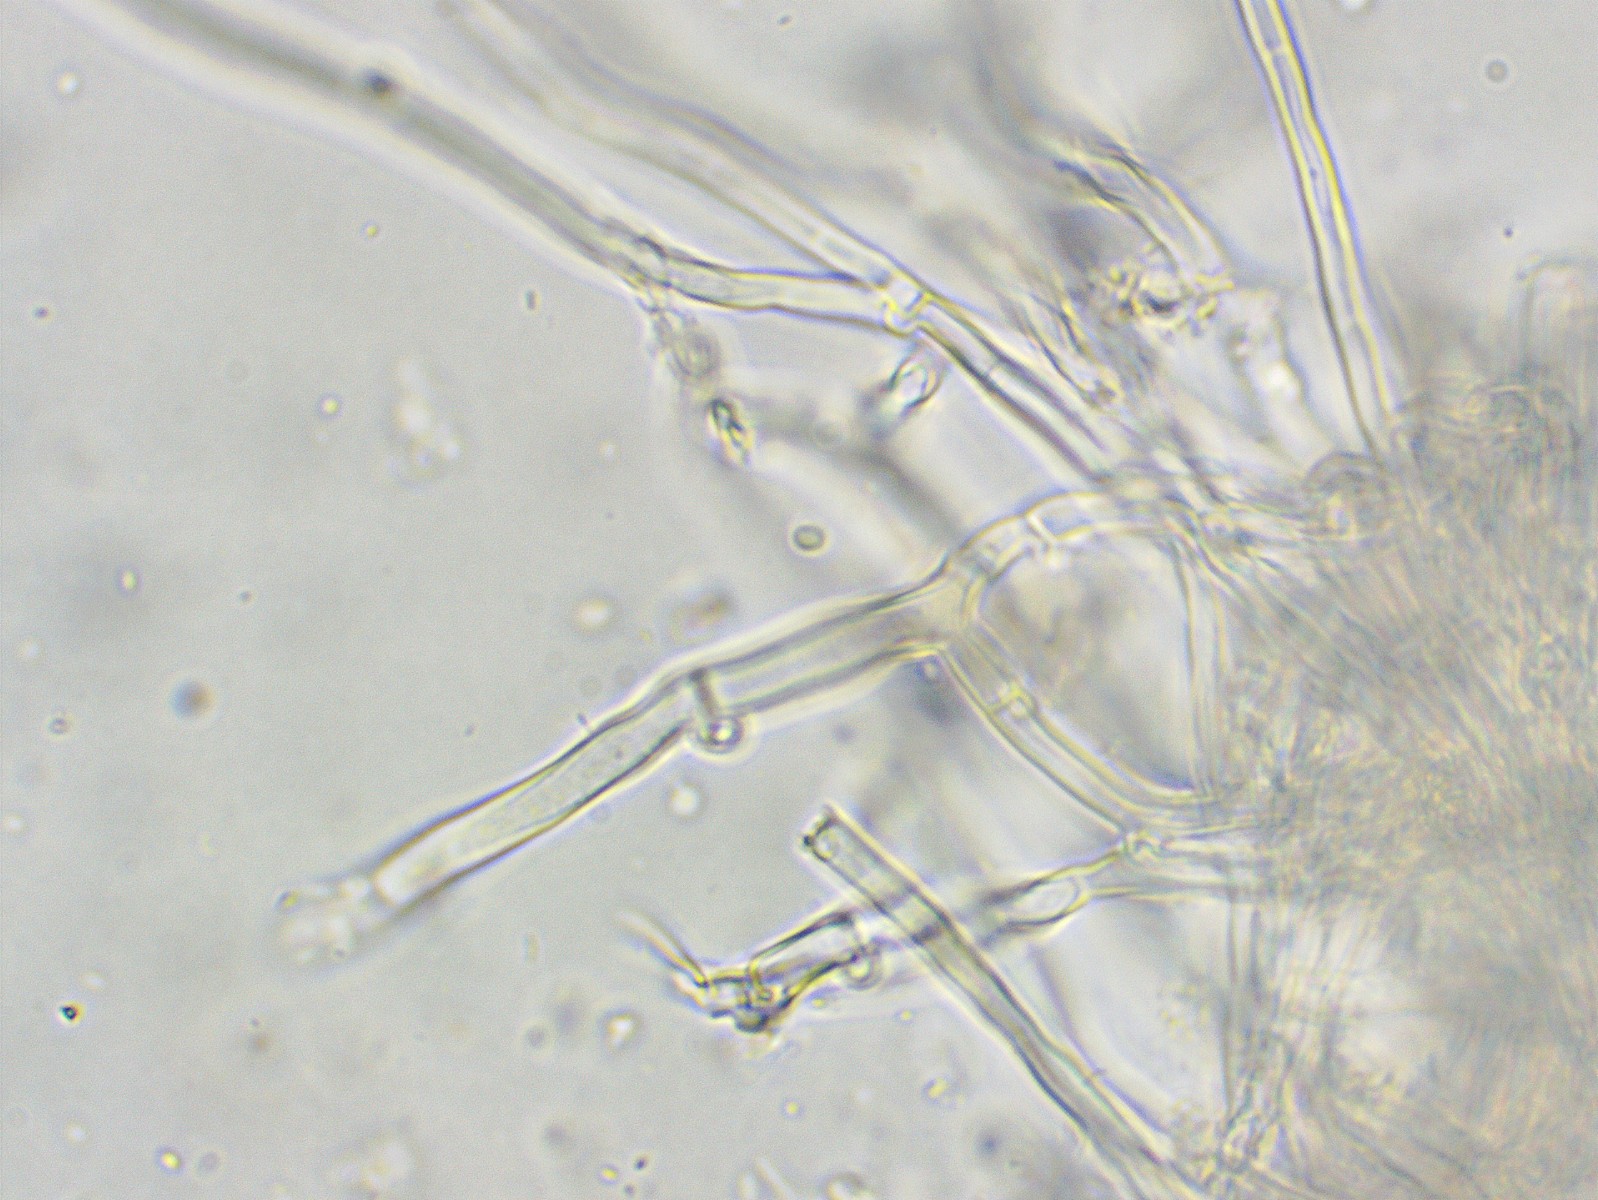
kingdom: Fungi
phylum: Basidiomycota
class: Agaricomycetes
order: Polyporales
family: Meruliaceae
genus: Mycoacia
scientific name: Mycoacia aurea
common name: lang vokspig
